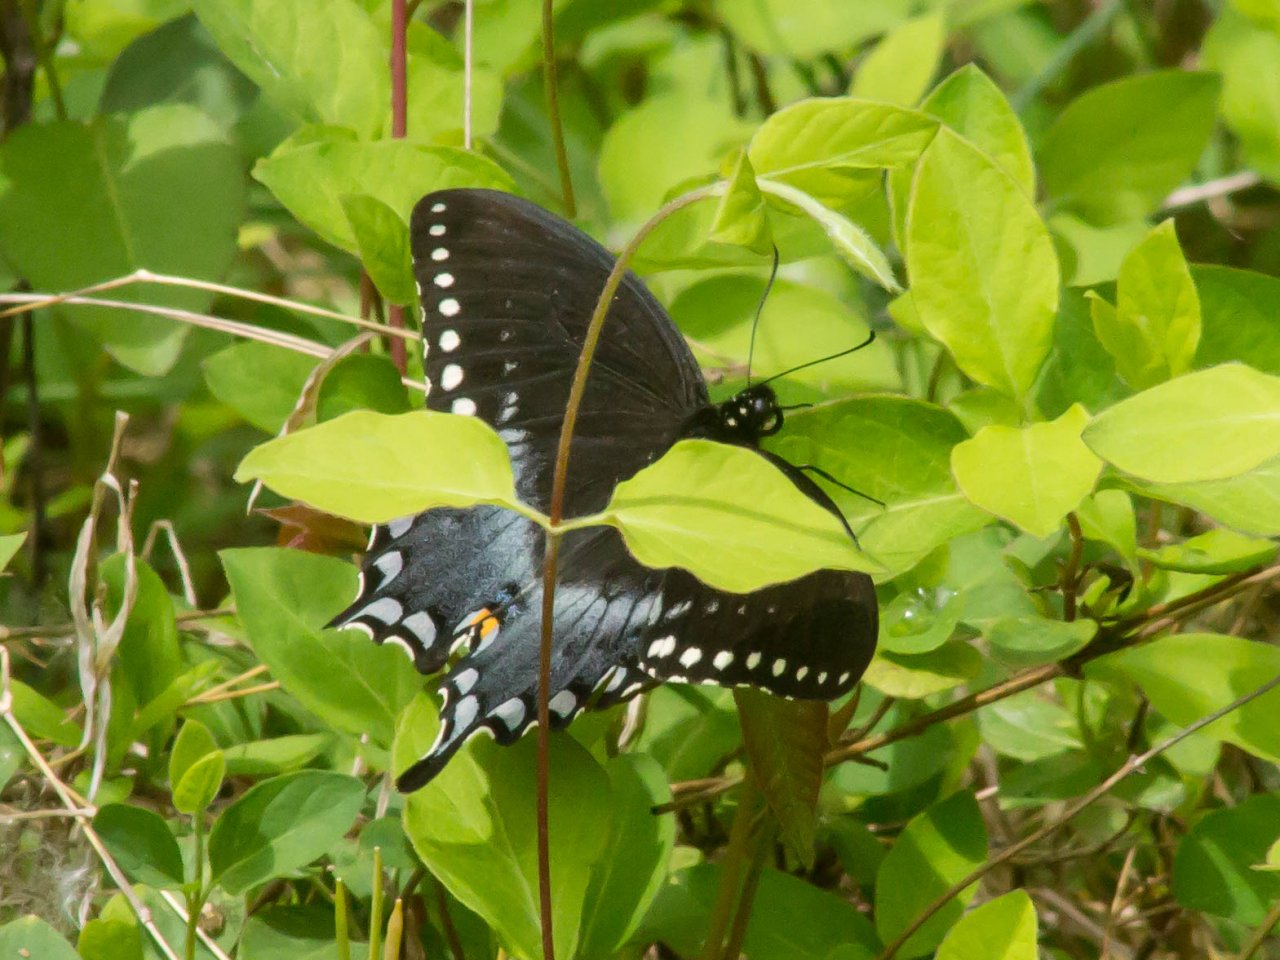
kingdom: Animalia
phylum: Arthropoda
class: Insecta
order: Lepidoptera
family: Papilionidae
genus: Pterourus
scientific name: Pterourus troilus
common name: Spicebush Swallowtail
